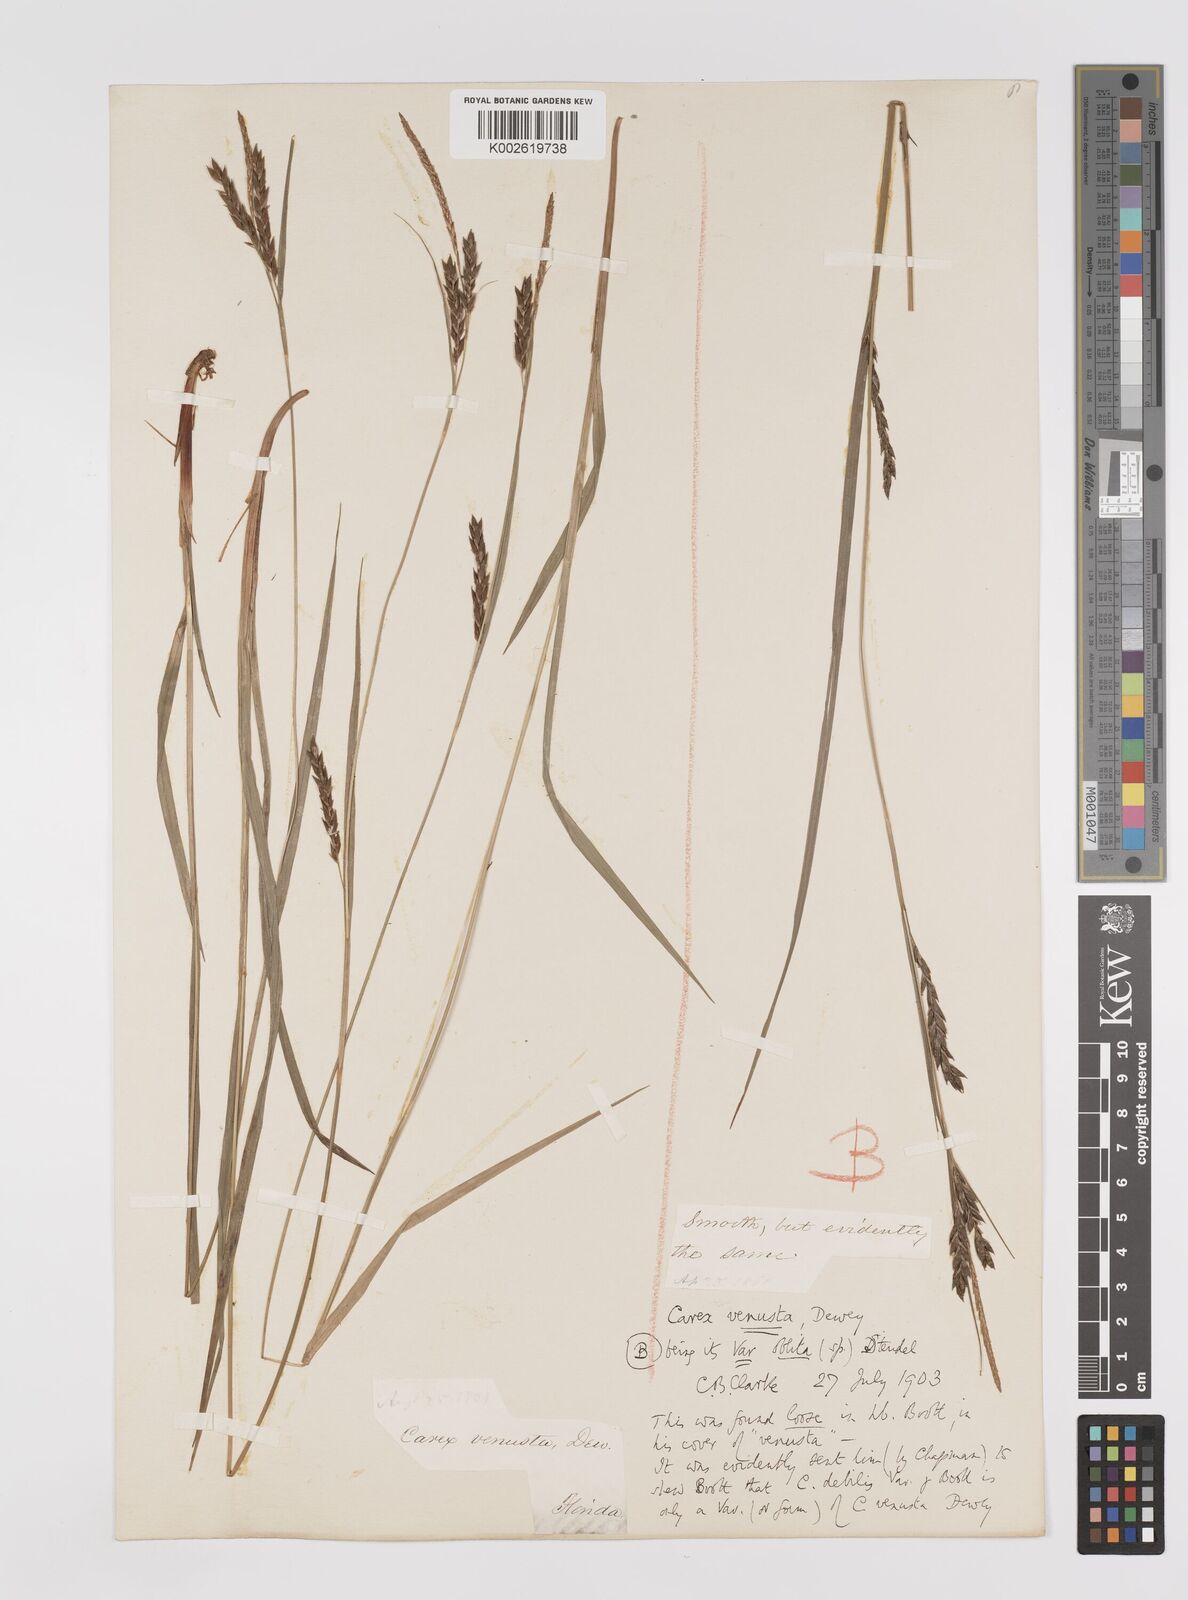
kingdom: Plantae
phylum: Tracheophyta
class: Liliopsida
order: Poales
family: Cyperaceae
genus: Carex
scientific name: Carex venusta
